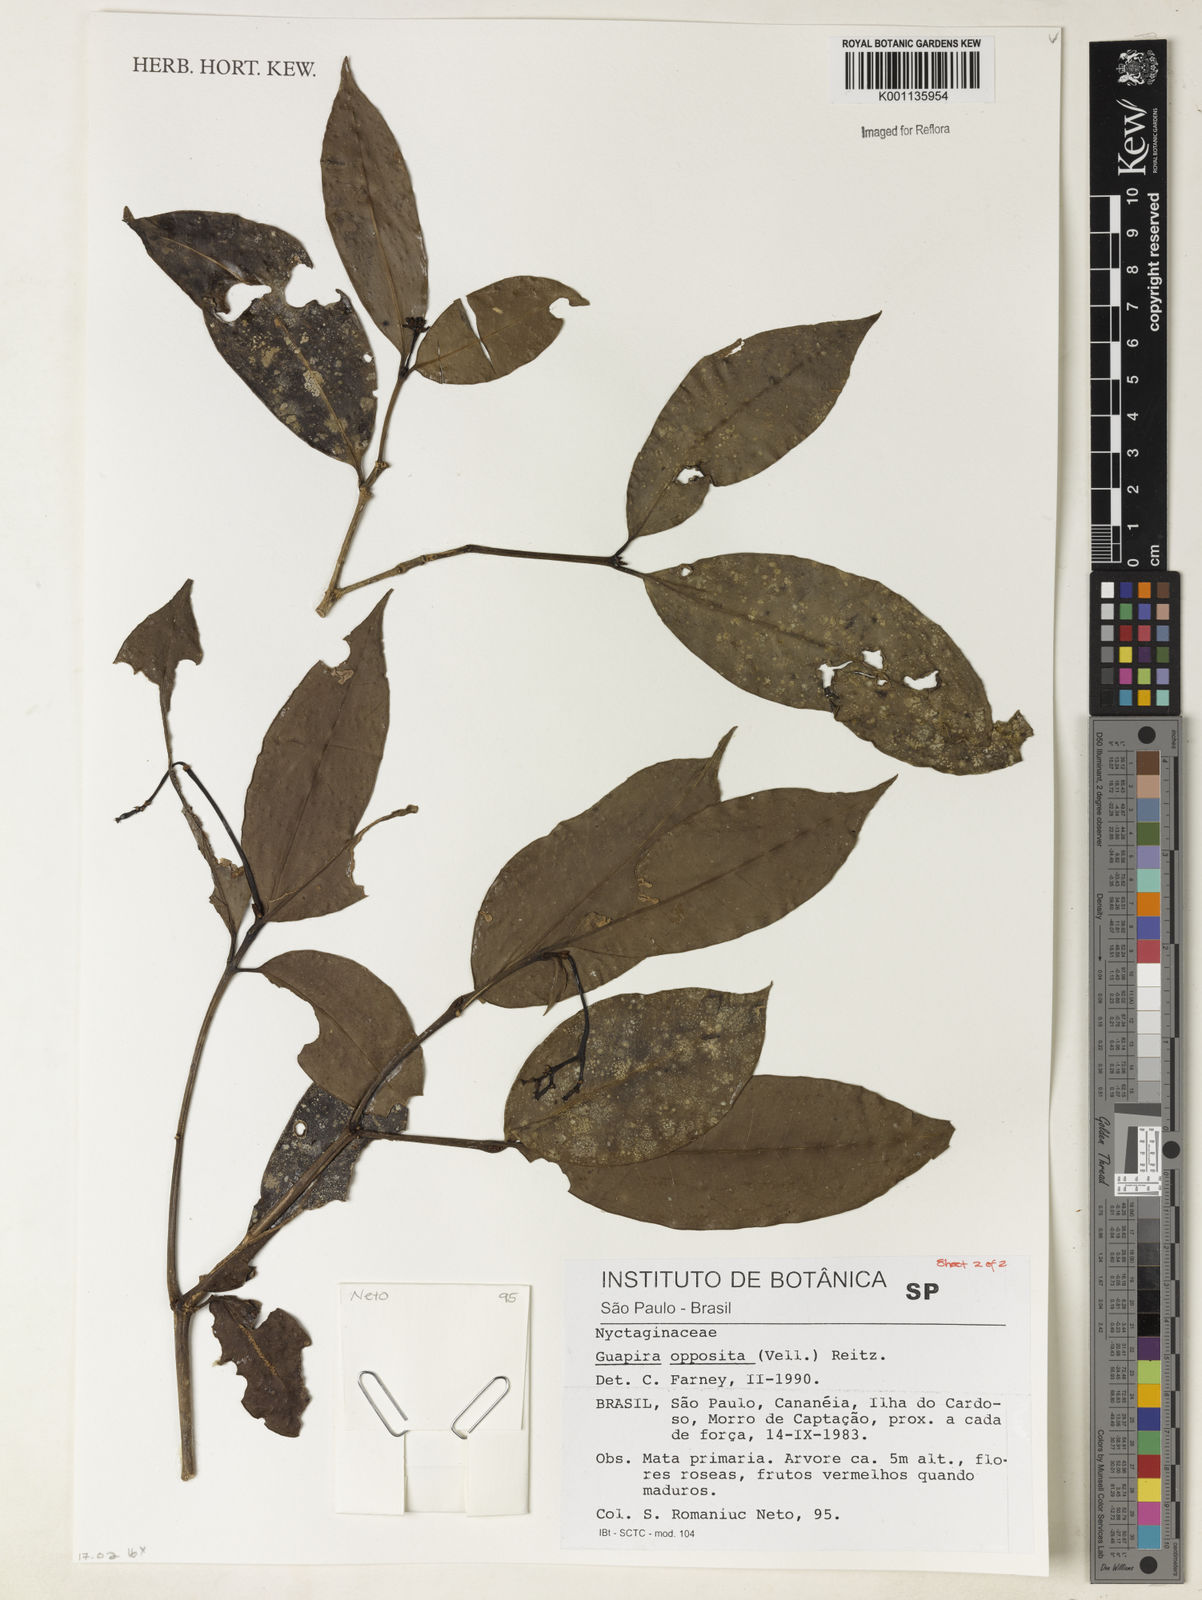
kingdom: Plantae
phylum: Tracheophyta
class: Magnoliopsida
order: Caryophyllales
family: Nyctaginaceae
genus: Guapira
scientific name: Guapira opposita
